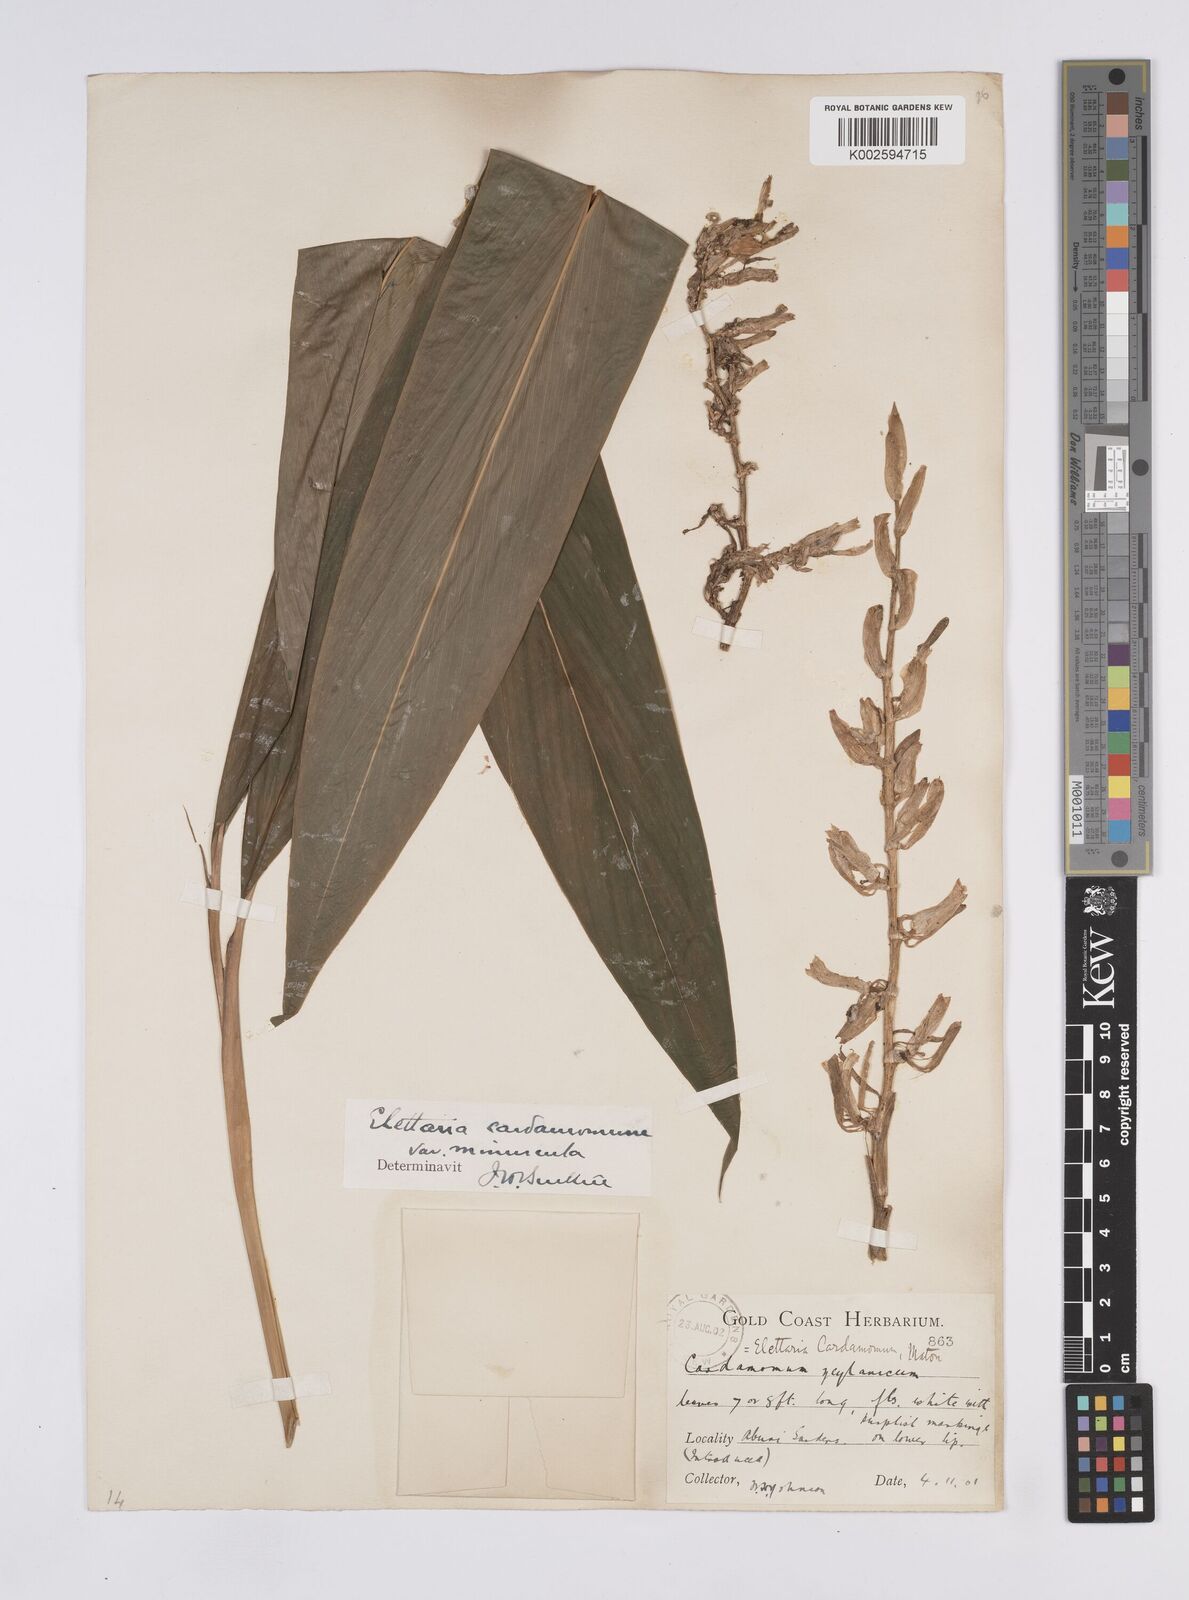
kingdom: Plantae
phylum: Tracheophyta
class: Liliopsida
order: Zingiberales
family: Zingiberaceae
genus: Elettaria
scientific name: Elettaria cardamomum
